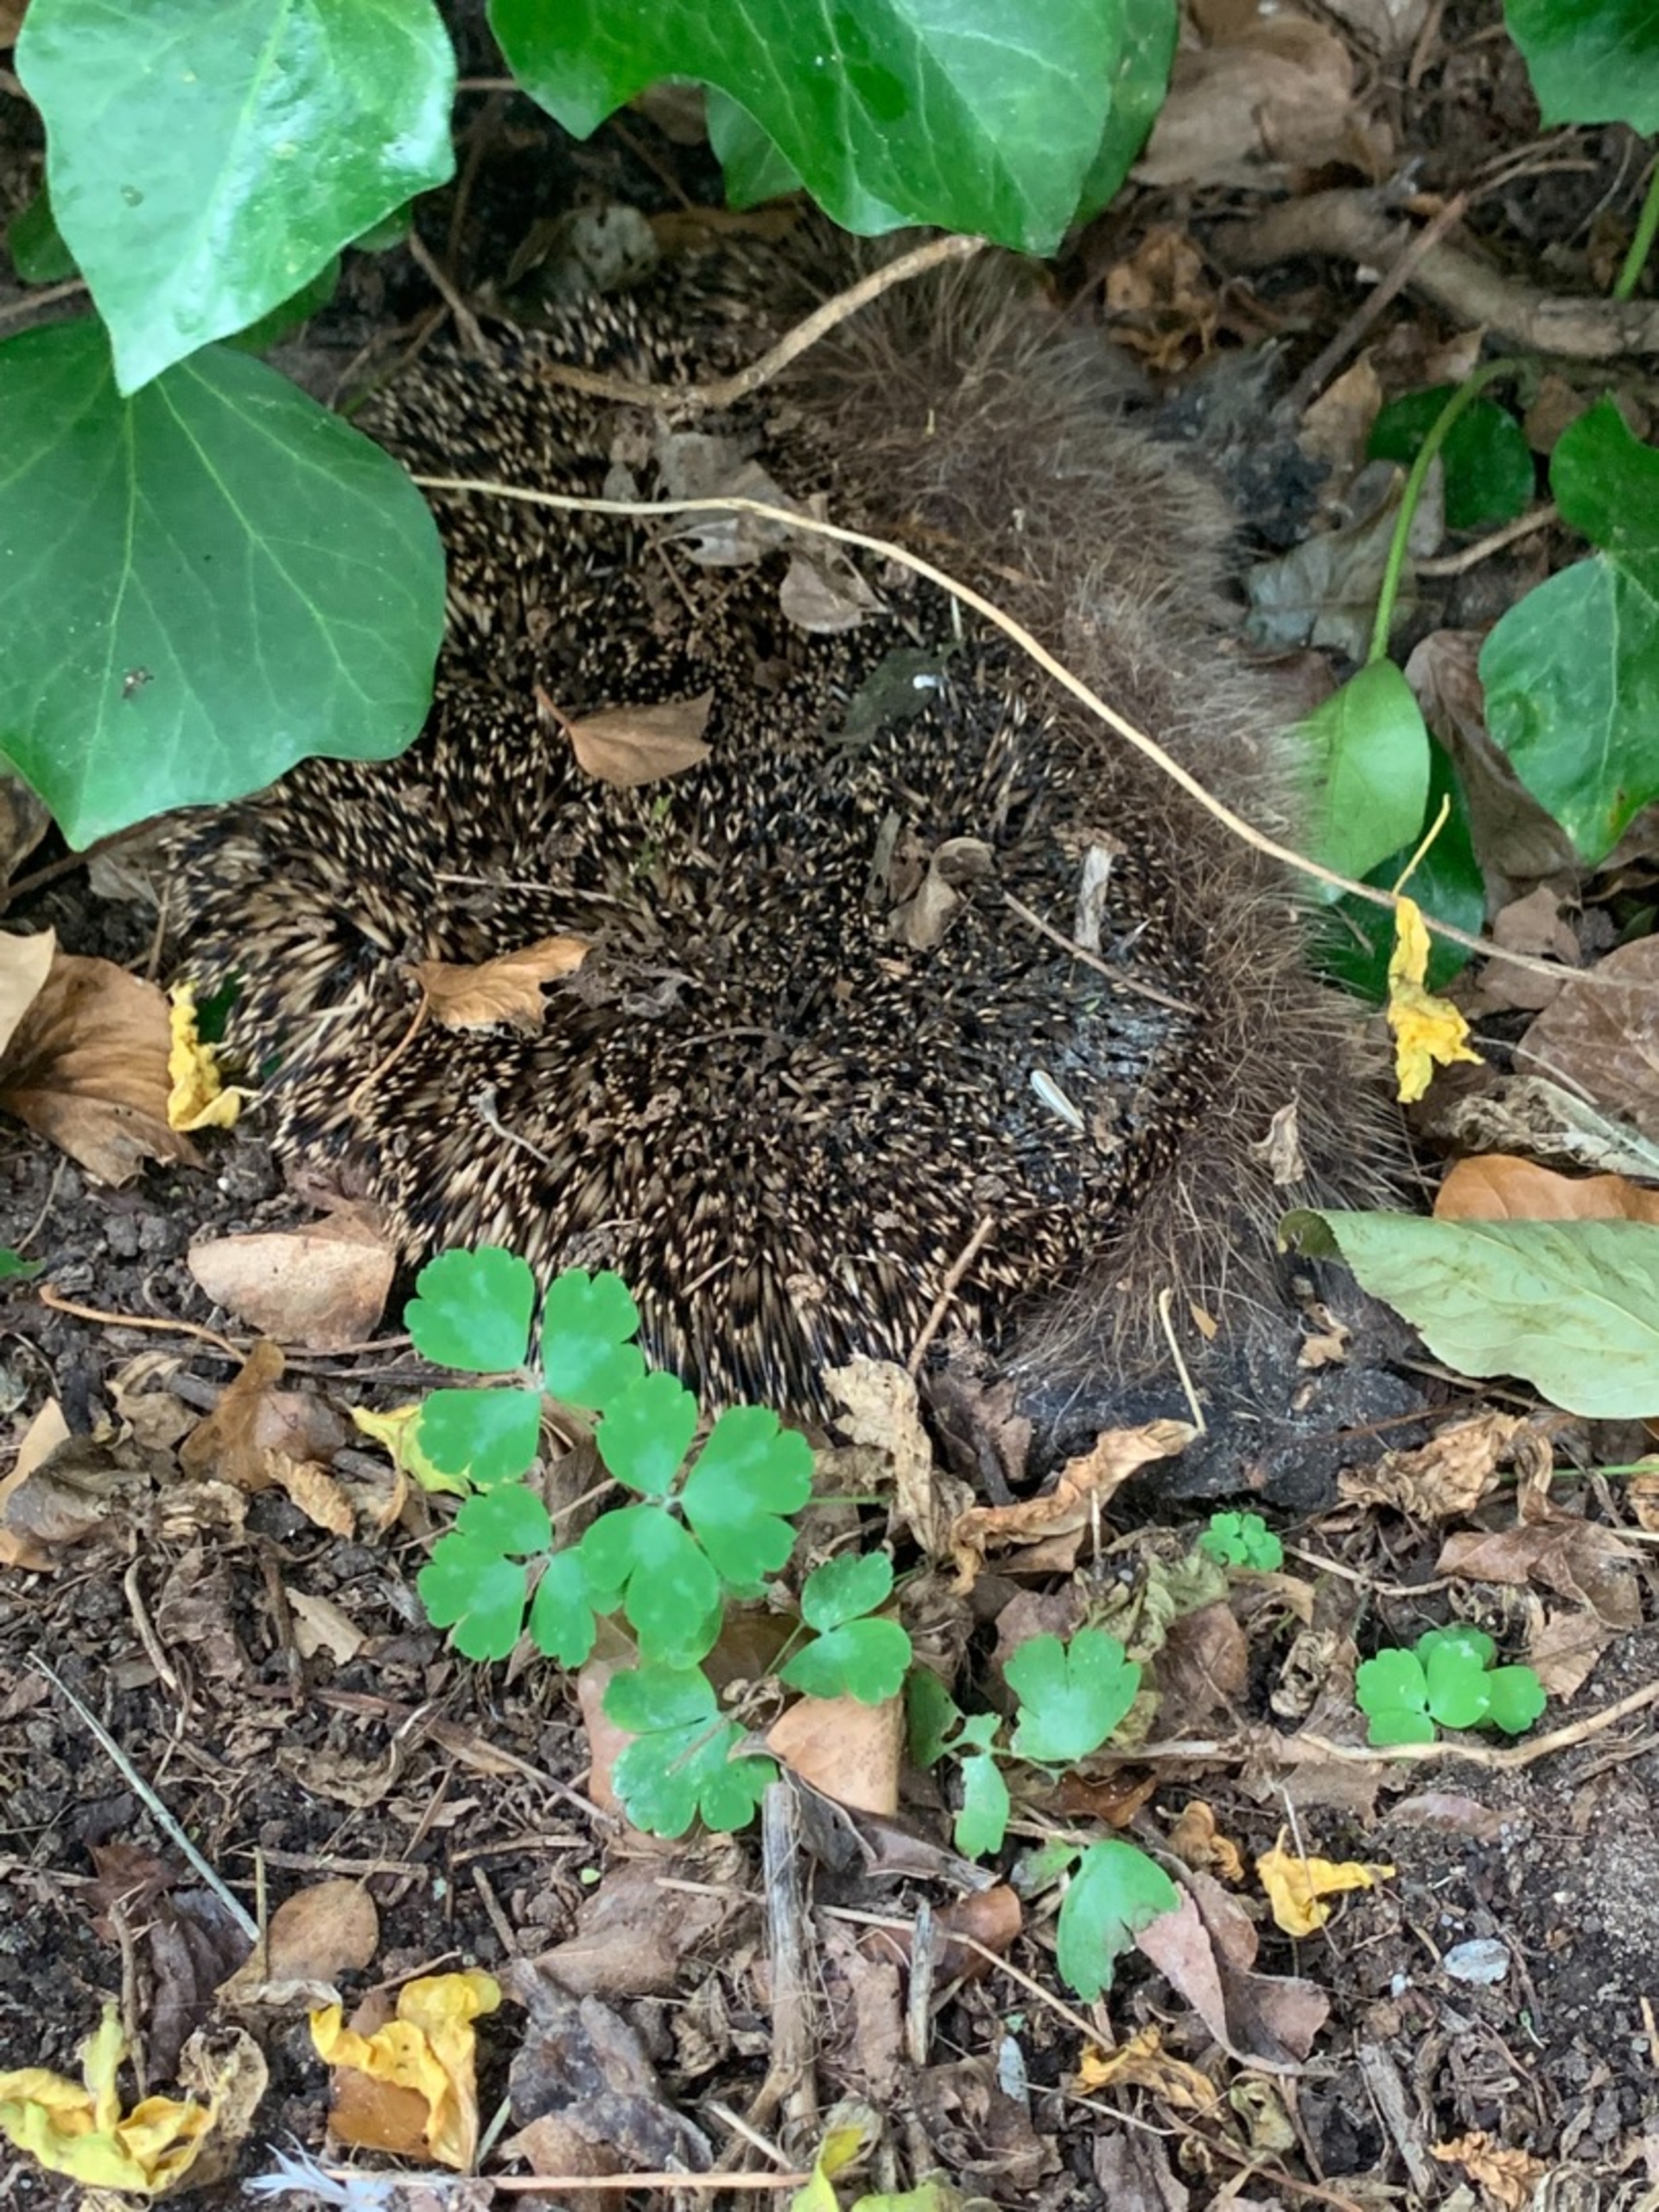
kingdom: Animalia
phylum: Chordata
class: Mammalia
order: Erinaceomorpha
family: Erinaceidae
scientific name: Erinaceidae
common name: Pindsvin
